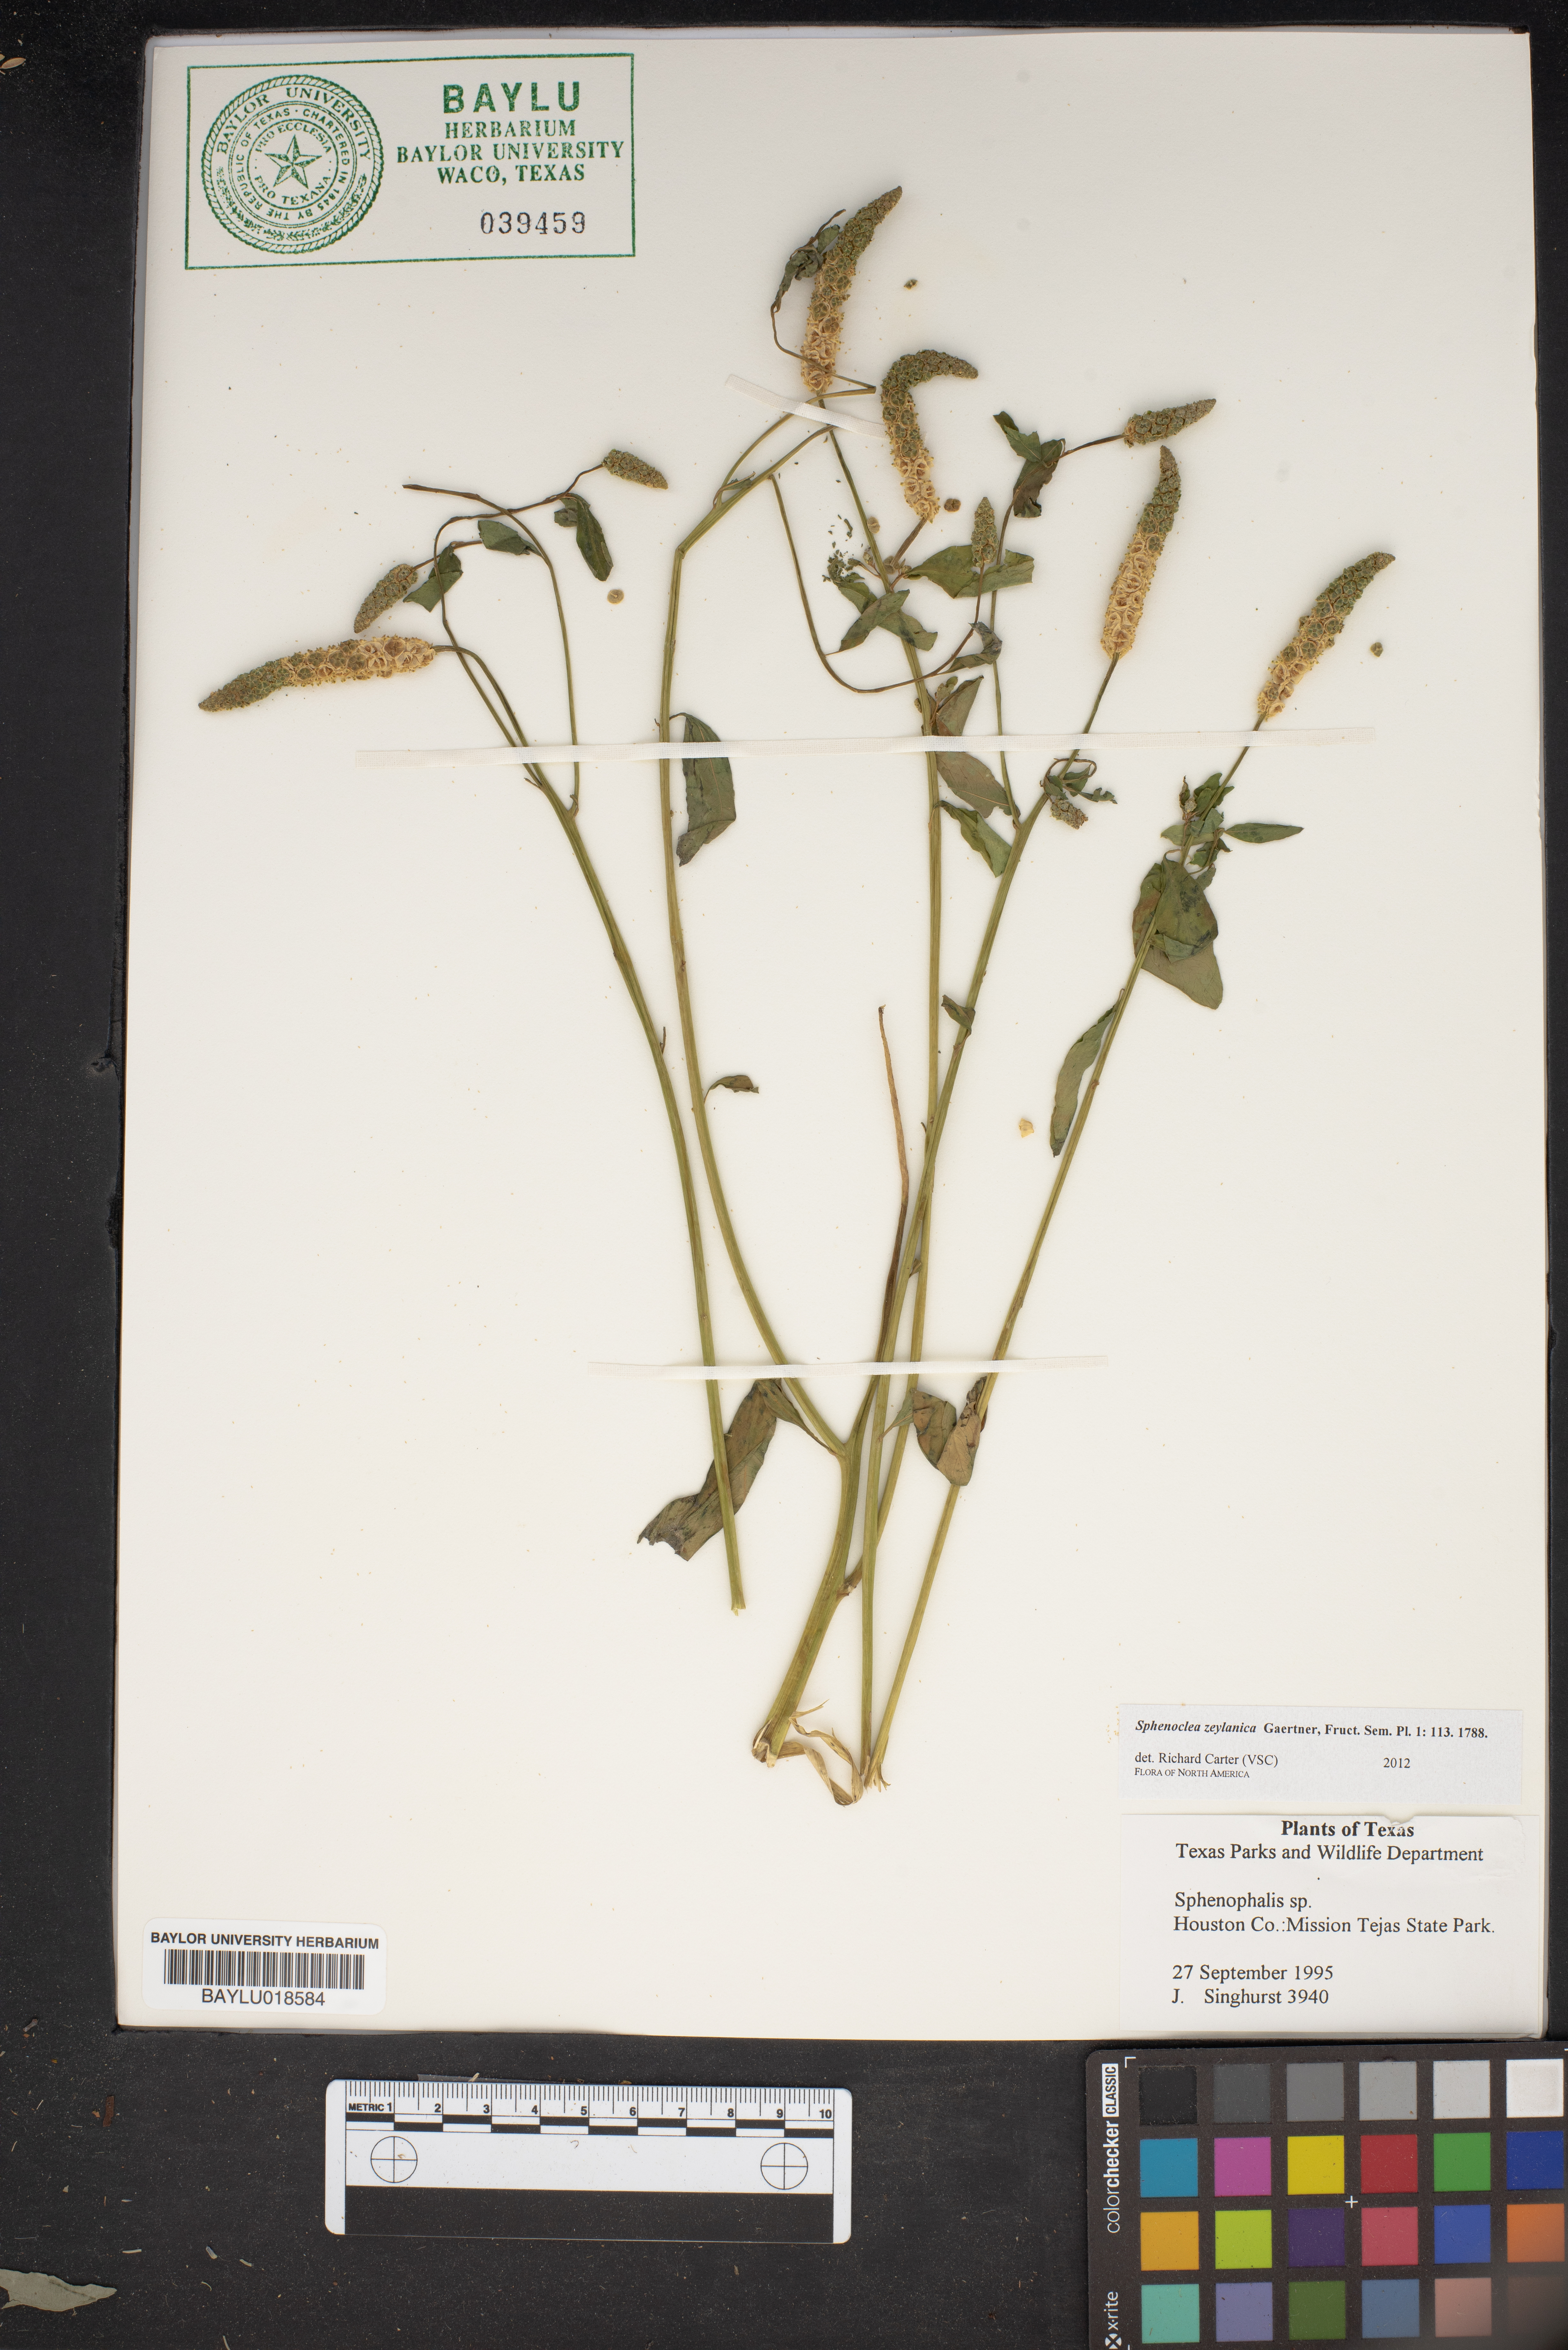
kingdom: Plantae
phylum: Tracheophyta
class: Liliopsida
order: Poales
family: Poaceae
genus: Sphenopholis
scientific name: Sphenopholis
